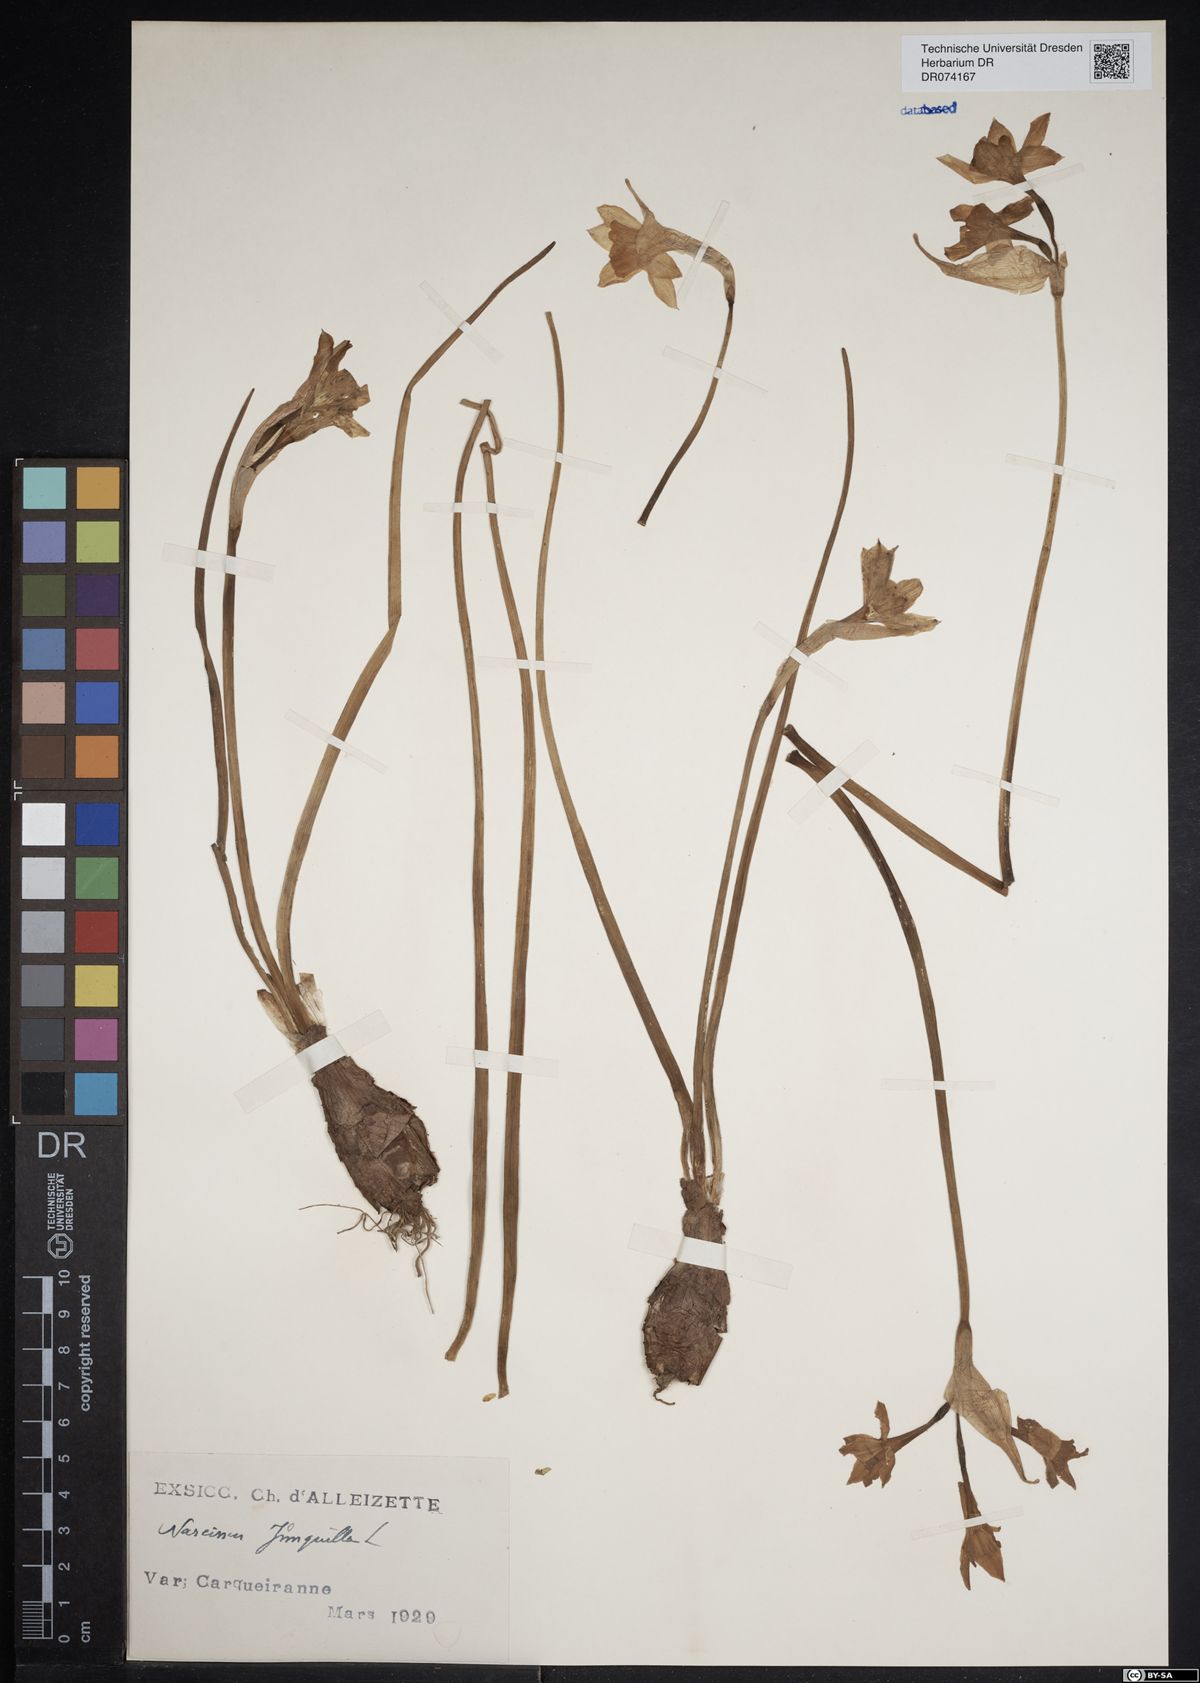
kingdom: Plantae
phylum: Tracheophyta
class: Liliopsida
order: Asparagales
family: Amaryllidaceae
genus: Narcissus
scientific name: Narcissus jonquilla
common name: Jonquil
